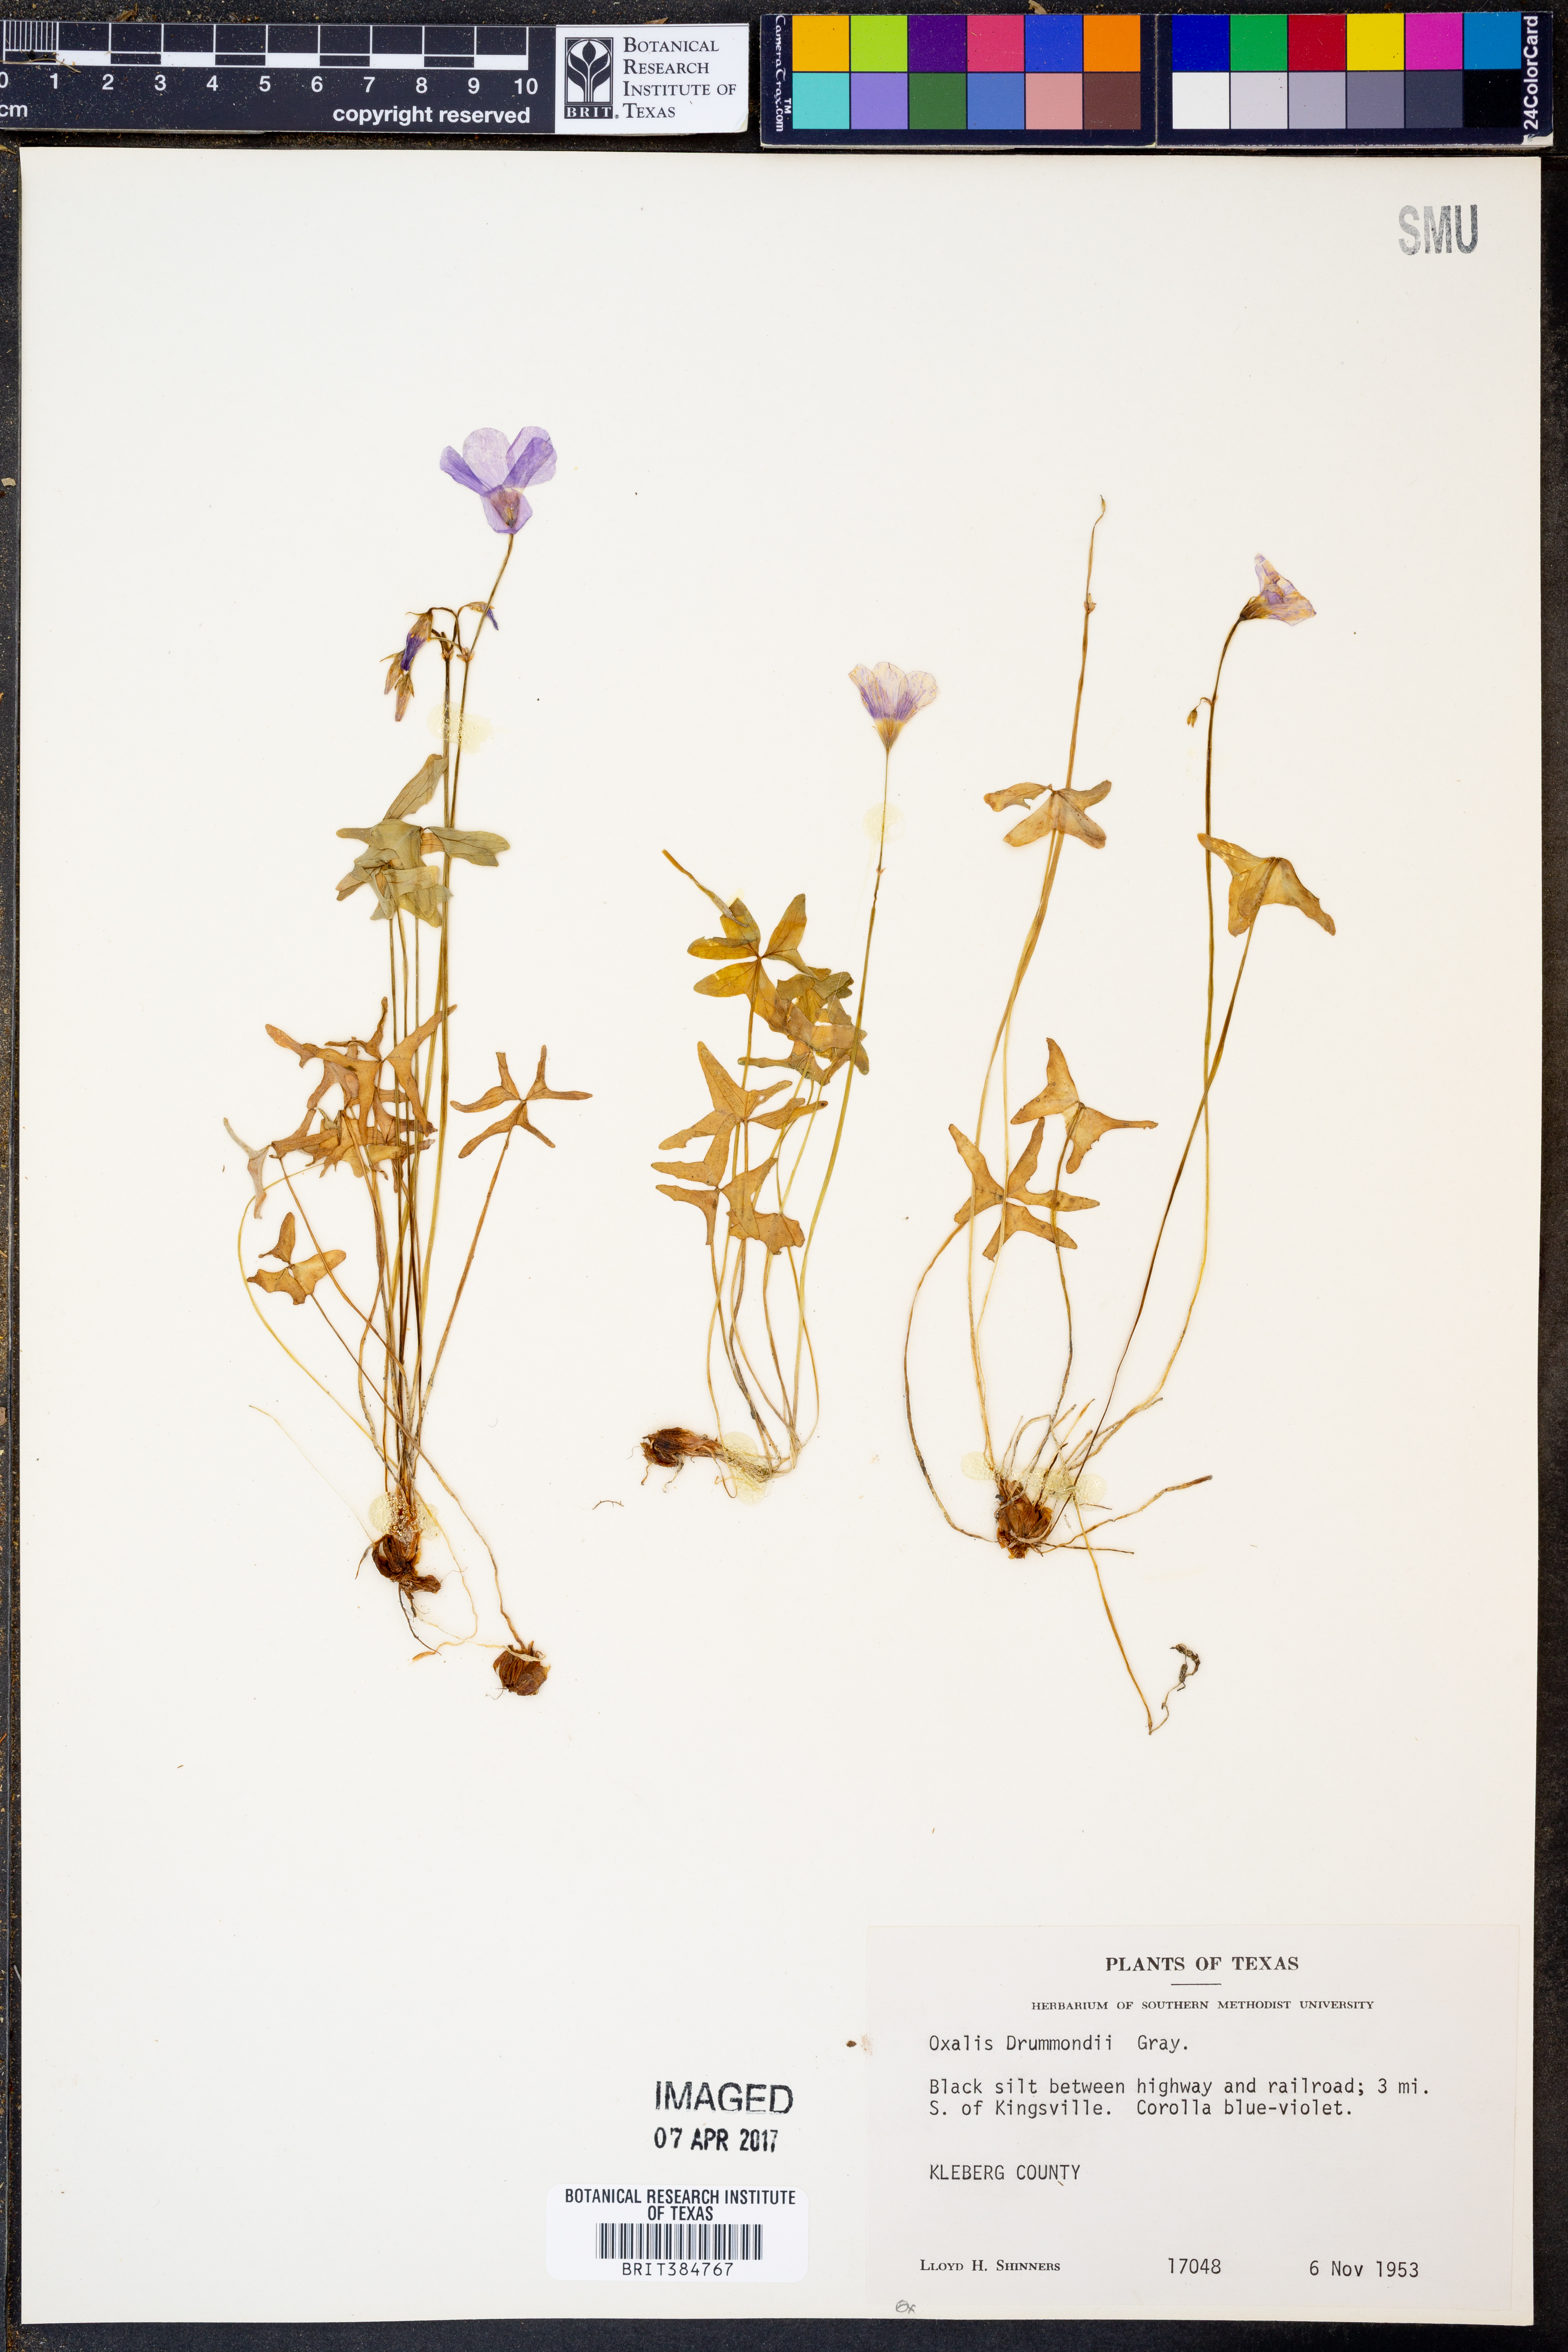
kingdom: Plantae
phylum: Tracheophyta
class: Magnoliopsida
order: Oxalidales
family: Oxalidaceae
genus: Oxalis
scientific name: Oxalis drummondii
